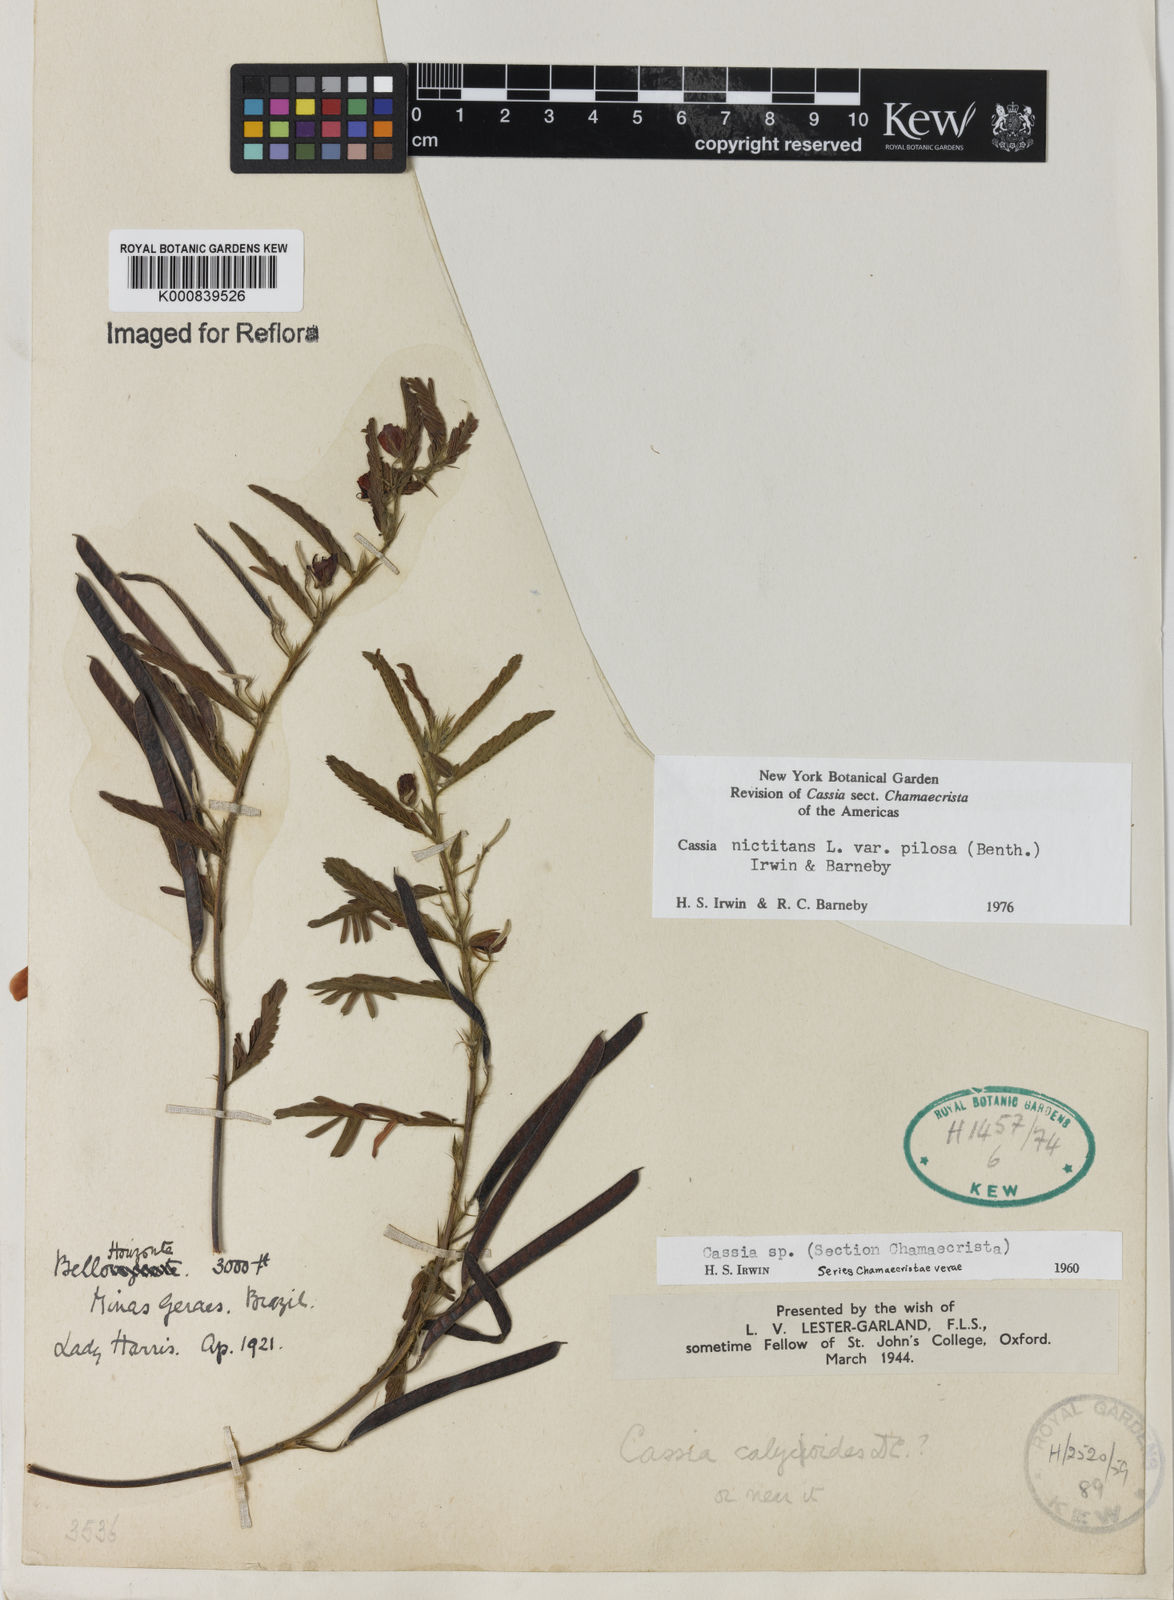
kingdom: Plantae
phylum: Tracheophyta
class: Magnoliopsida
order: Fabales
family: Fabaceae
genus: Chamaecrista
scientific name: Chamaecrista nictitans
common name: Sensitive cassia
